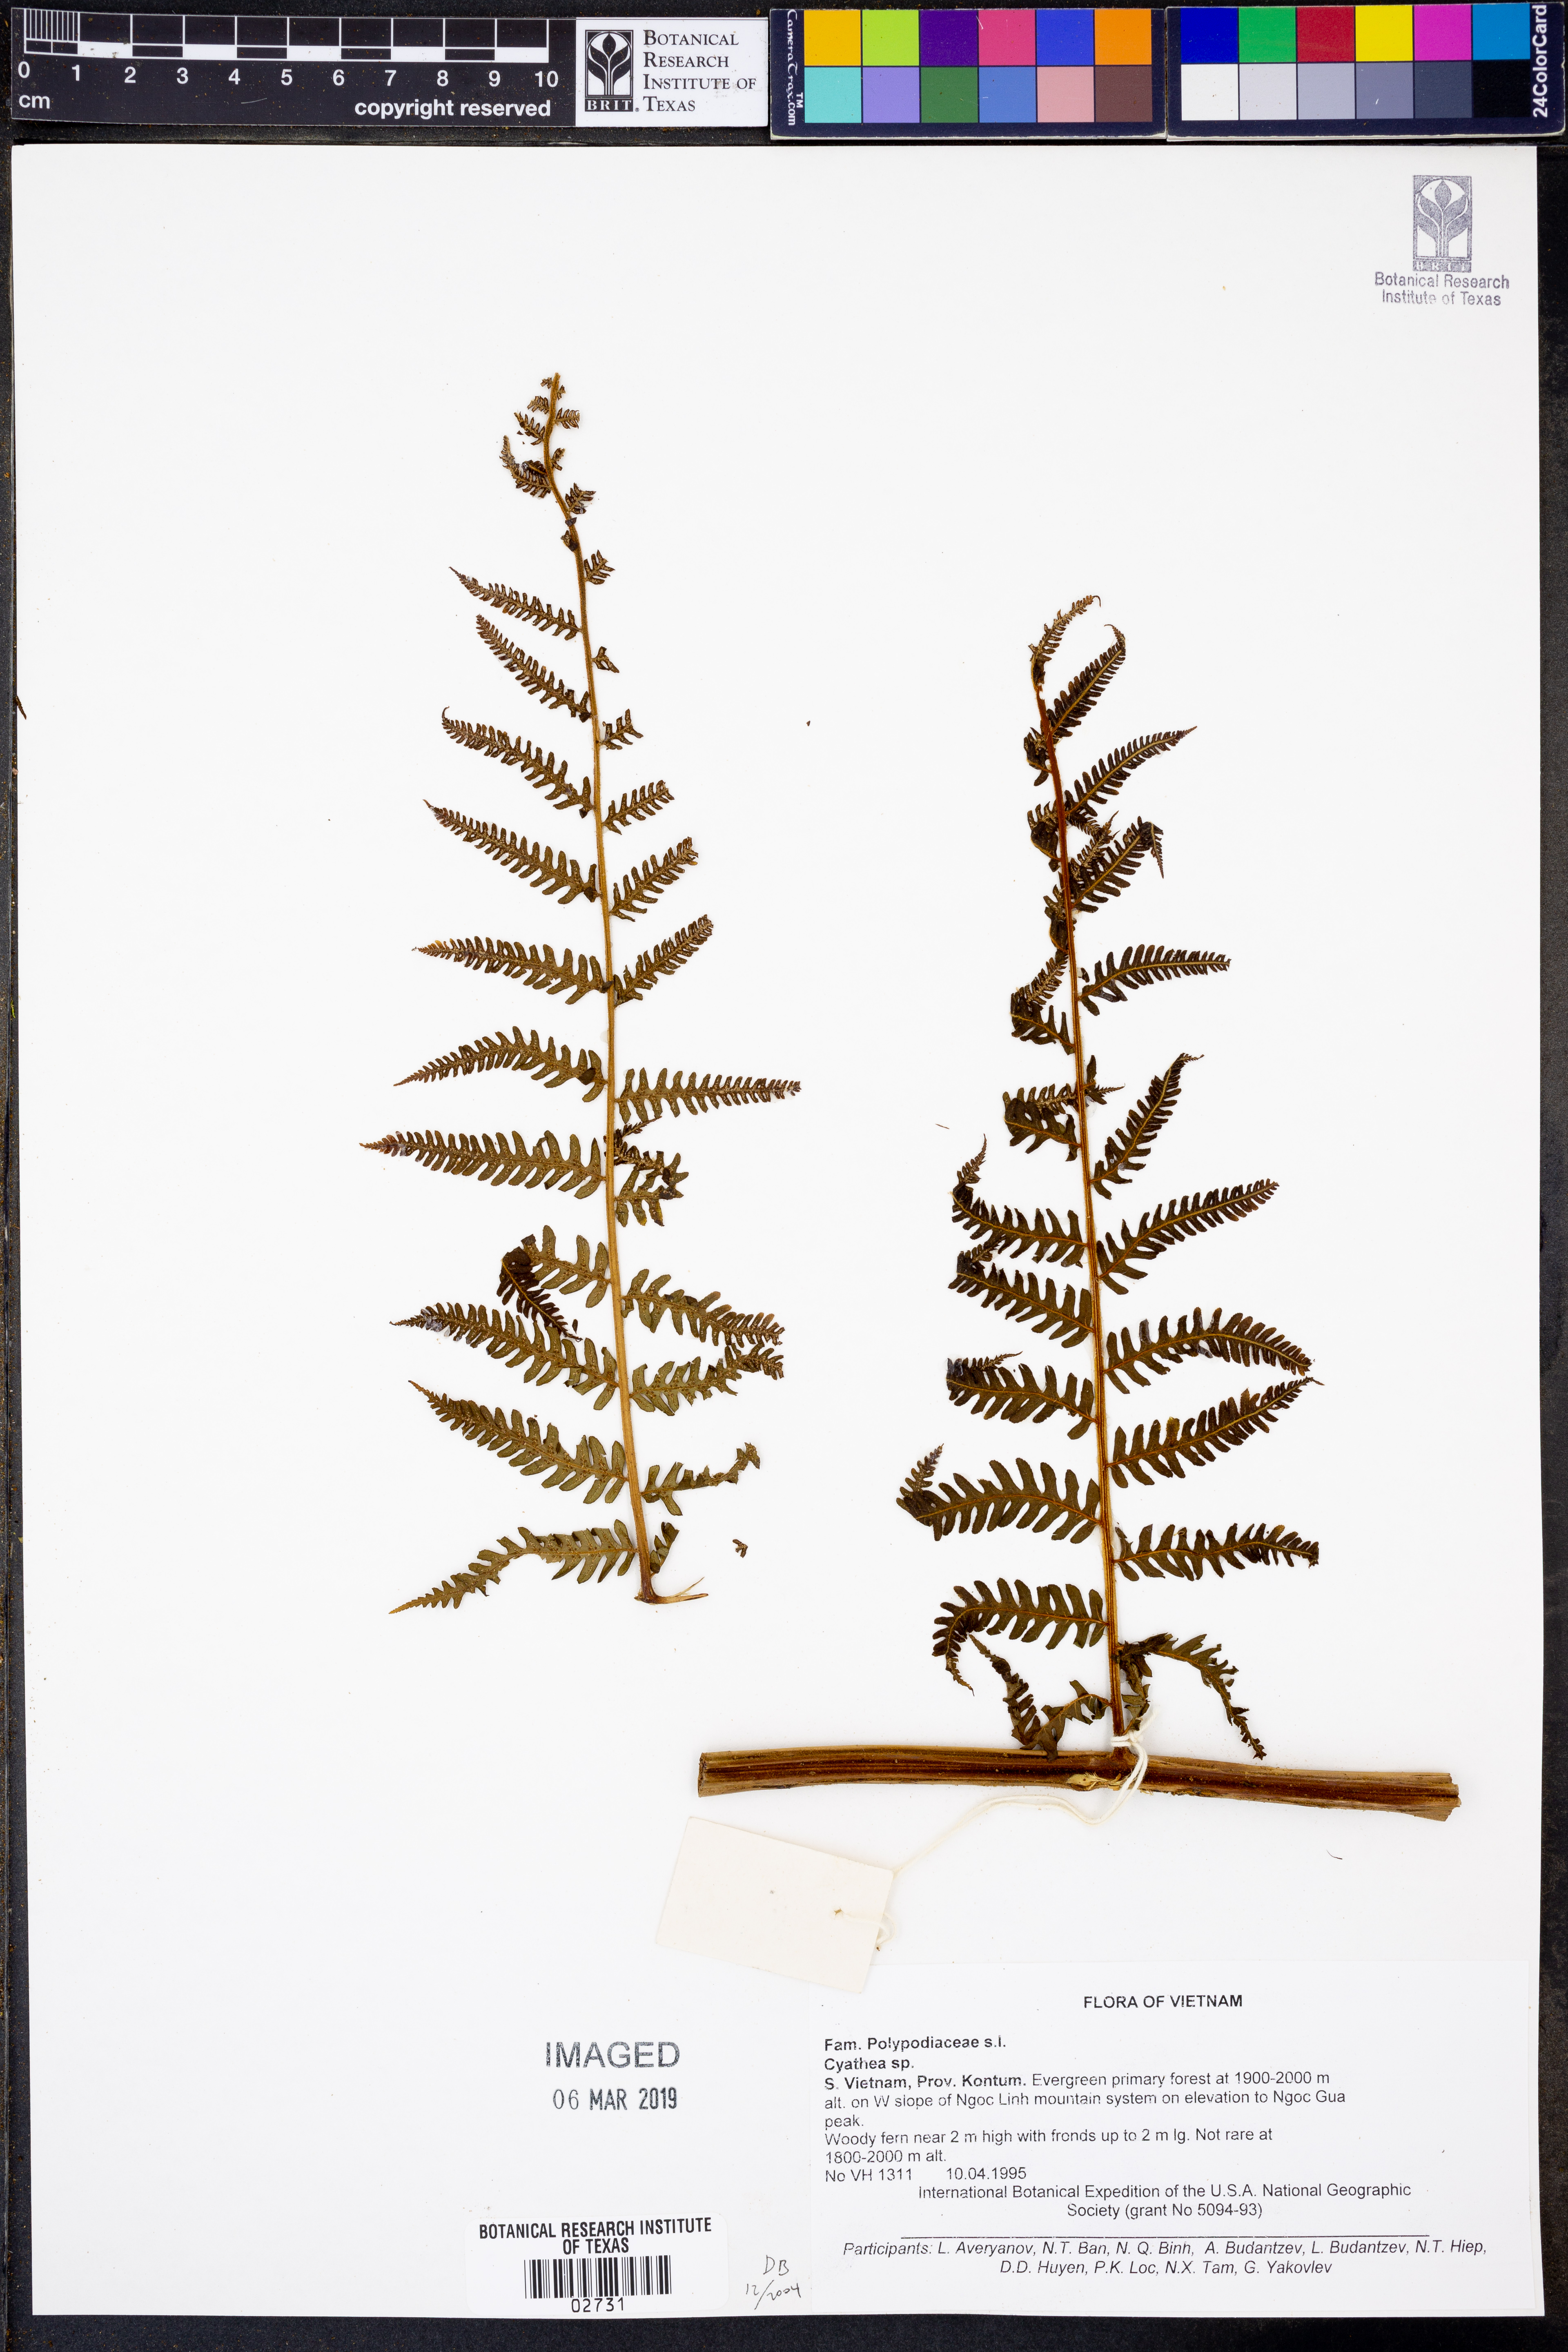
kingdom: Plantae
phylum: Tracheophyta
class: Polypodiopsida
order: Cyatheales
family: Cyatheaceae
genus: Cyathea
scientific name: Cyathea
